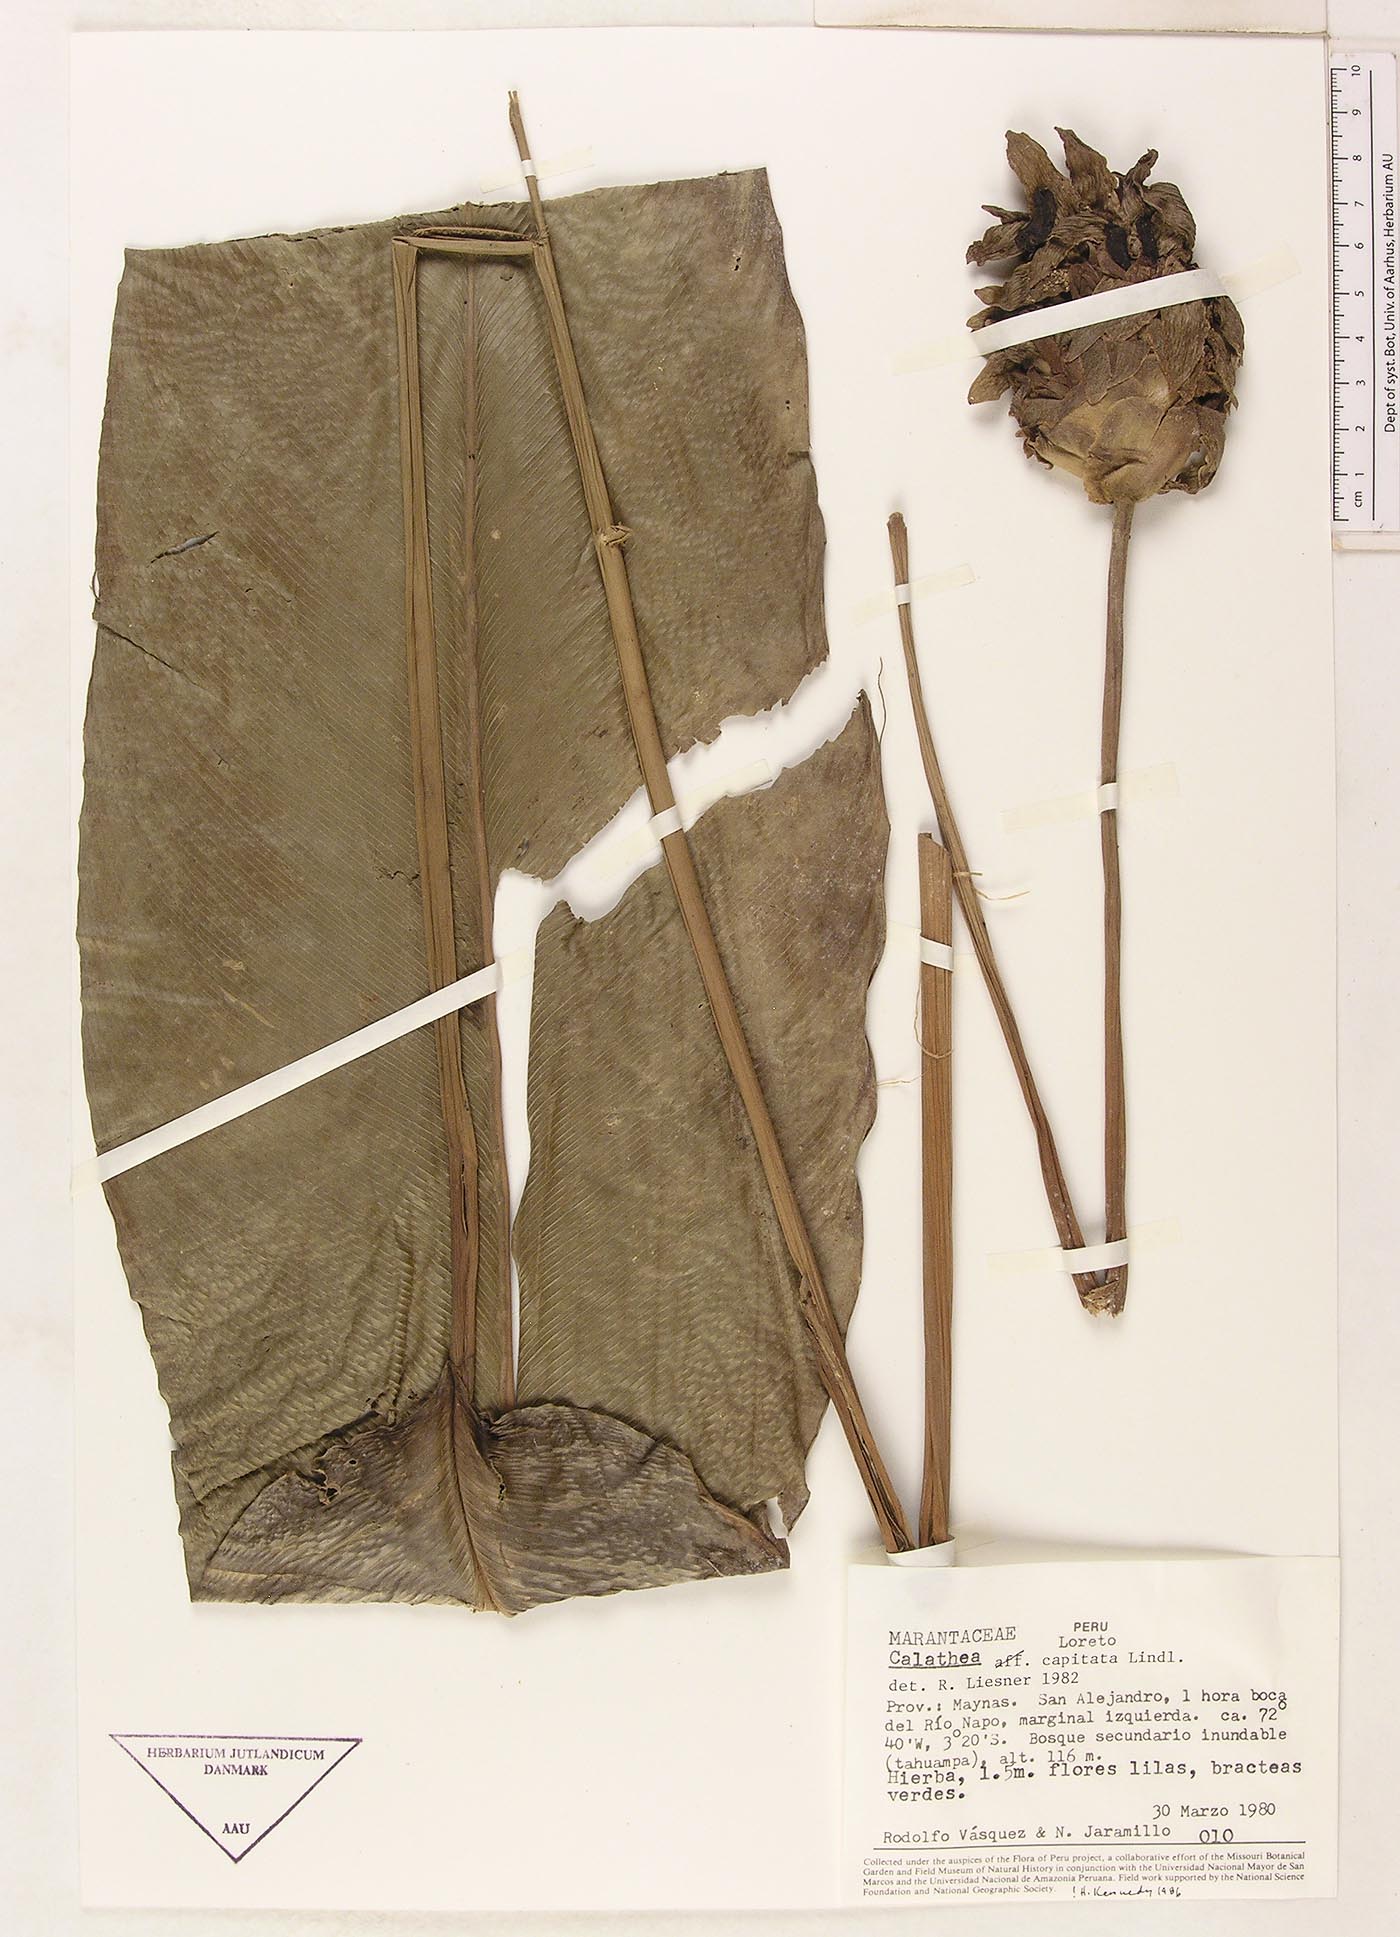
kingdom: Plantae
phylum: Tracheophyta
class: Liliopsida
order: Zingiberales
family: Marantaceae
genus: Goeppertia
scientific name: Goeppertia capitata
